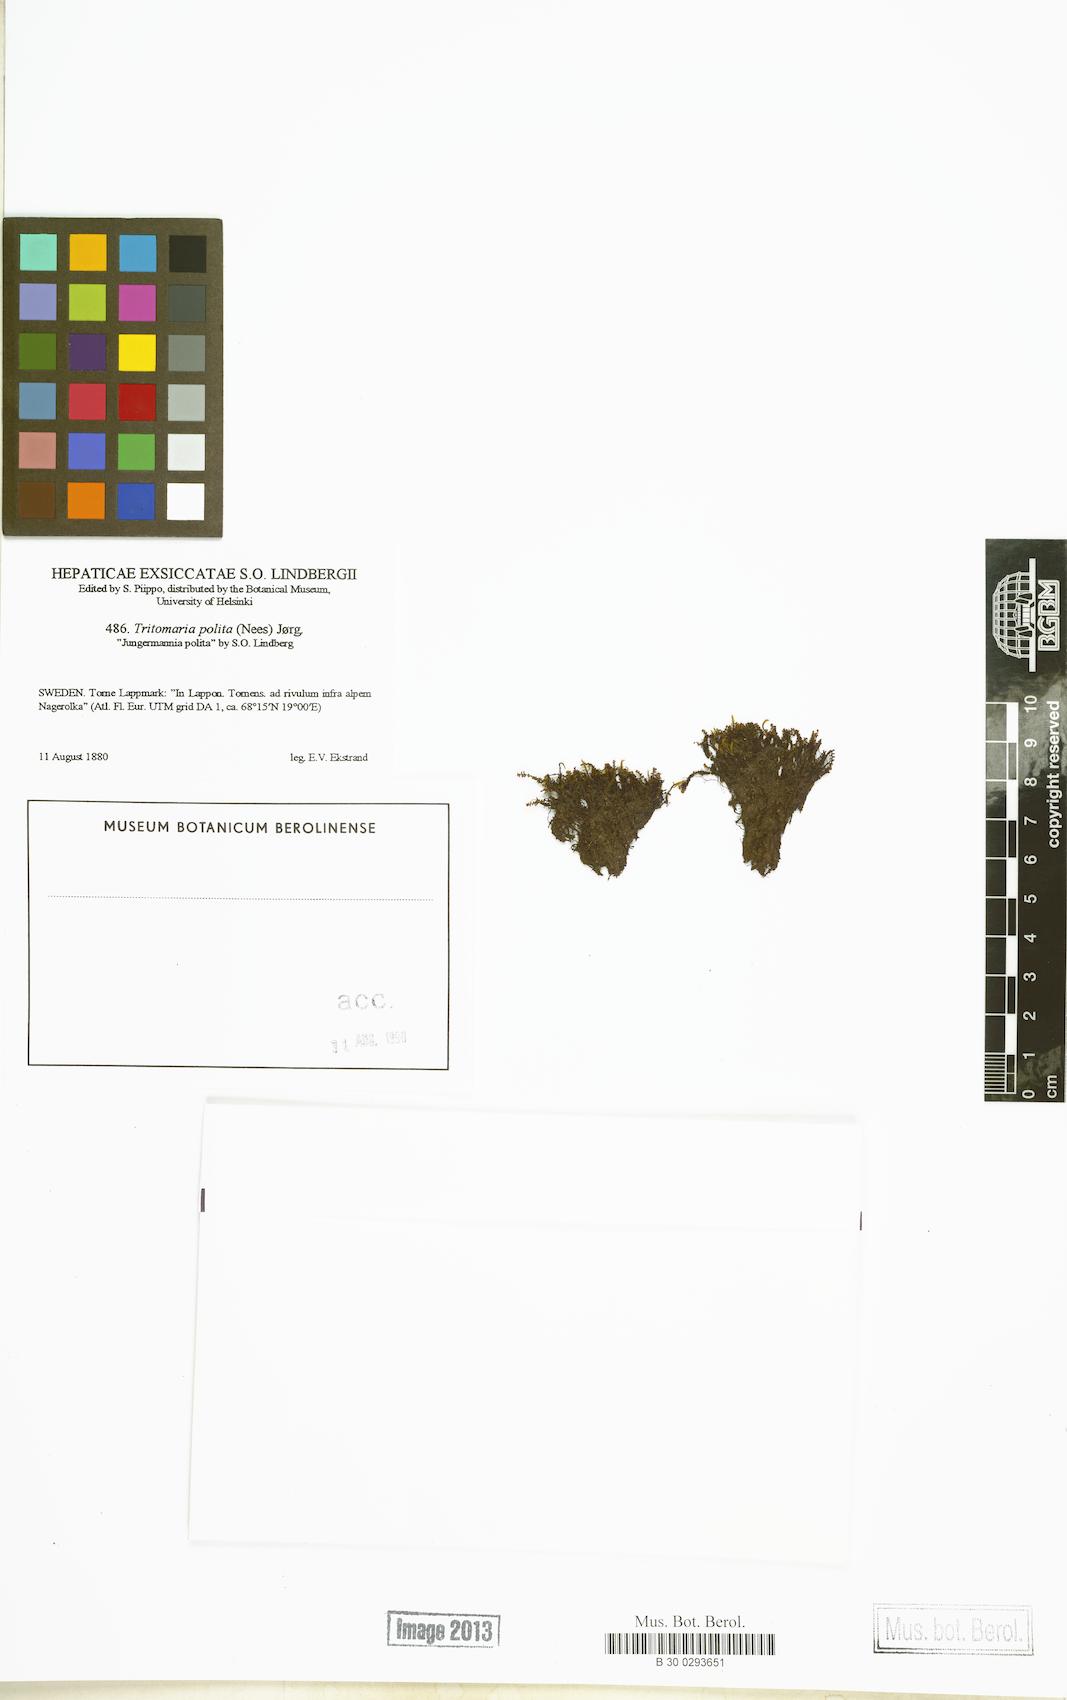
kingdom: Plantae
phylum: Marchantiophyta
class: Jungermanniopsida
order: Jungermanniales
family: Scapaniaceae
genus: Saccobasis
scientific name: Saccobasis polita
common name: Flush notchwort
